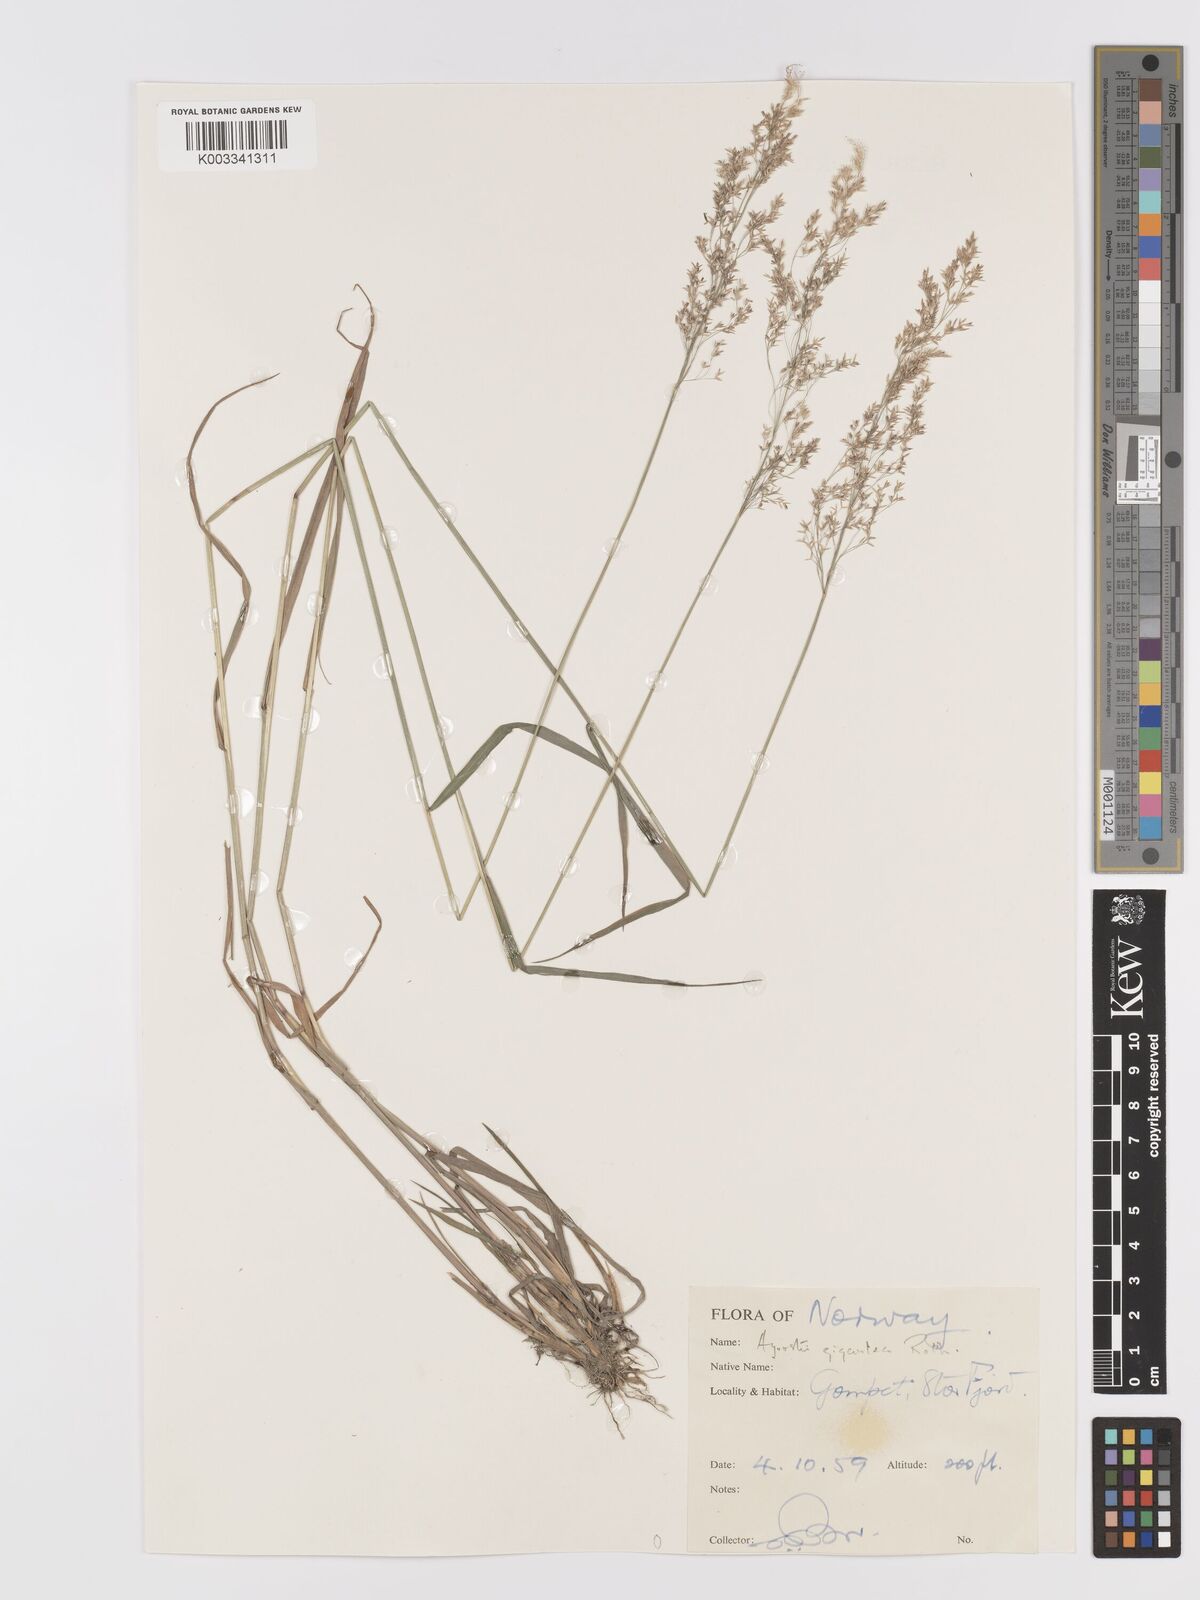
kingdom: Plantae
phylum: Tracheophyta
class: Liliopsida
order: Poales
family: Poaceae
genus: Agrostis
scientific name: Agrostis gigantea
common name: Black bent
